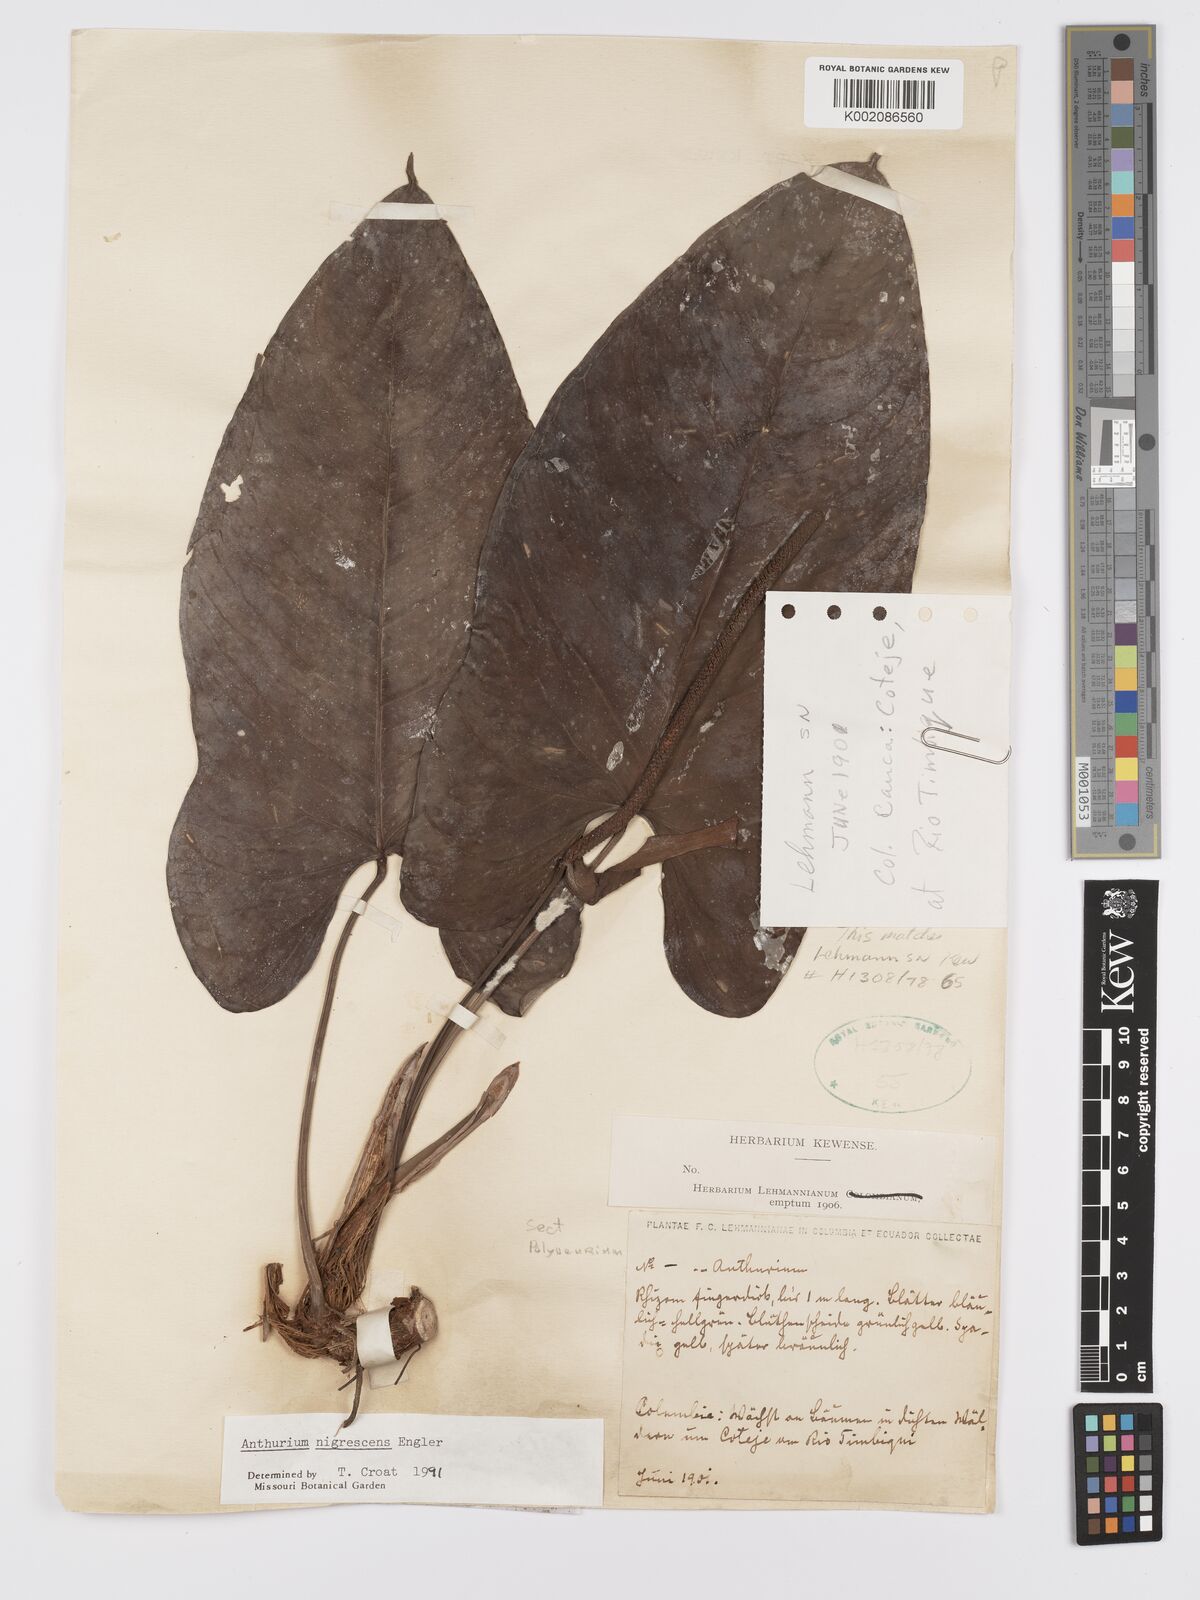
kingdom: Plantae
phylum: Tracheophyta
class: Liliopsida
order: Alismatales
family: Araceae
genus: Anthurium
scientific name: Anthurium nigrescens
